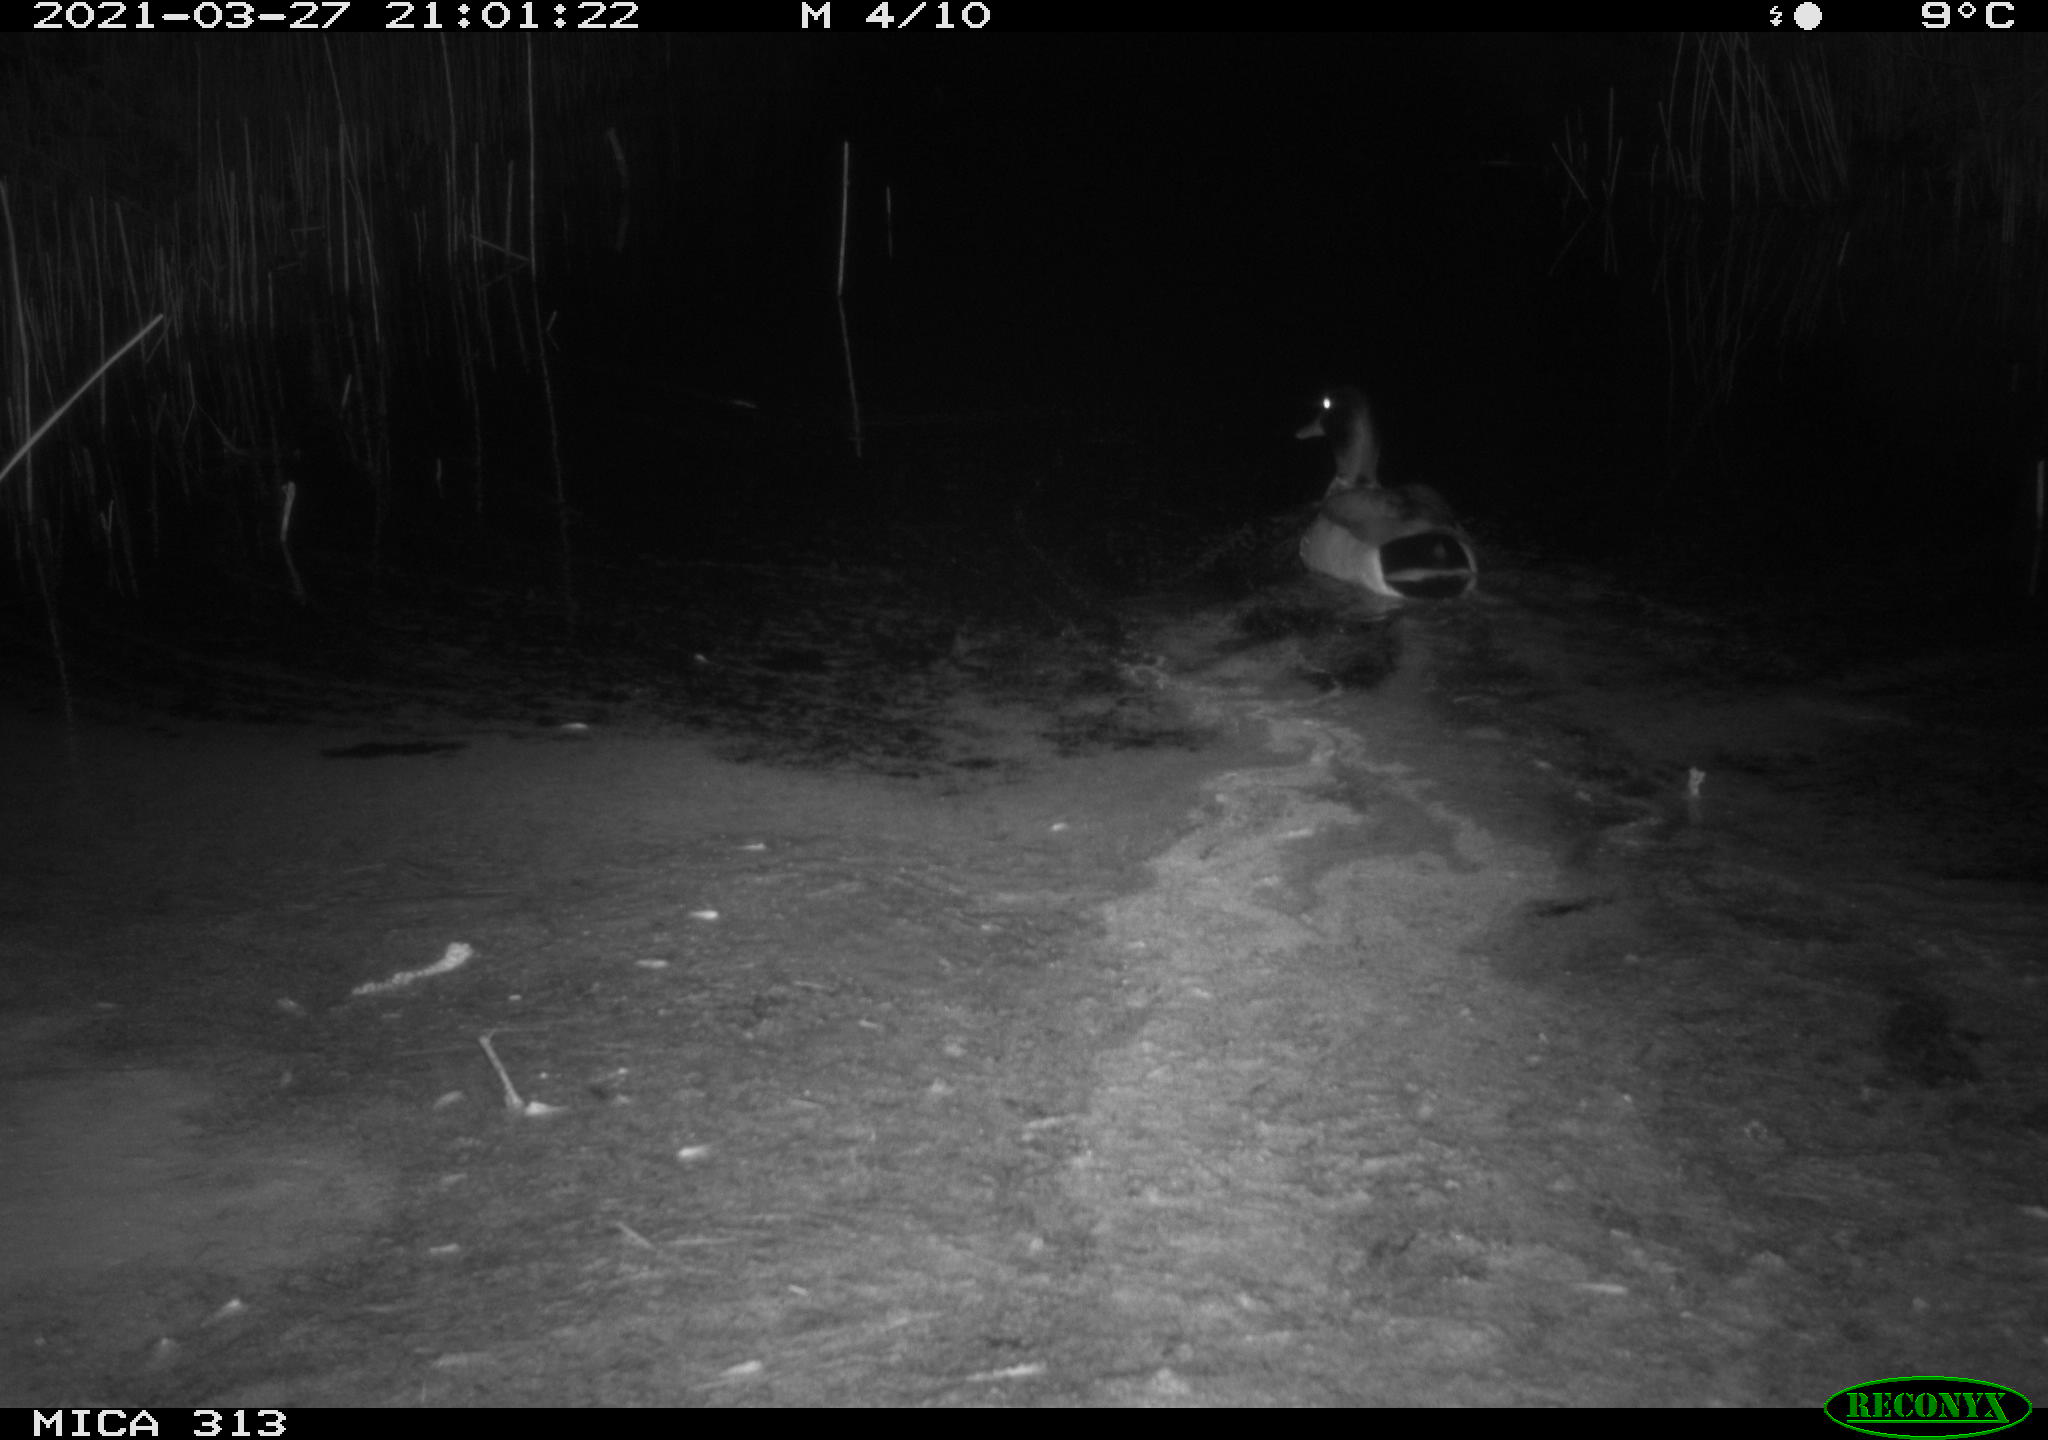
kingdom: Animalia
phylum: Chordata
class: Aves
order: Anseriformes
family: Anatidae
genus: Anas
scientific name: Anas platyrhynchos
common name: Mallard
